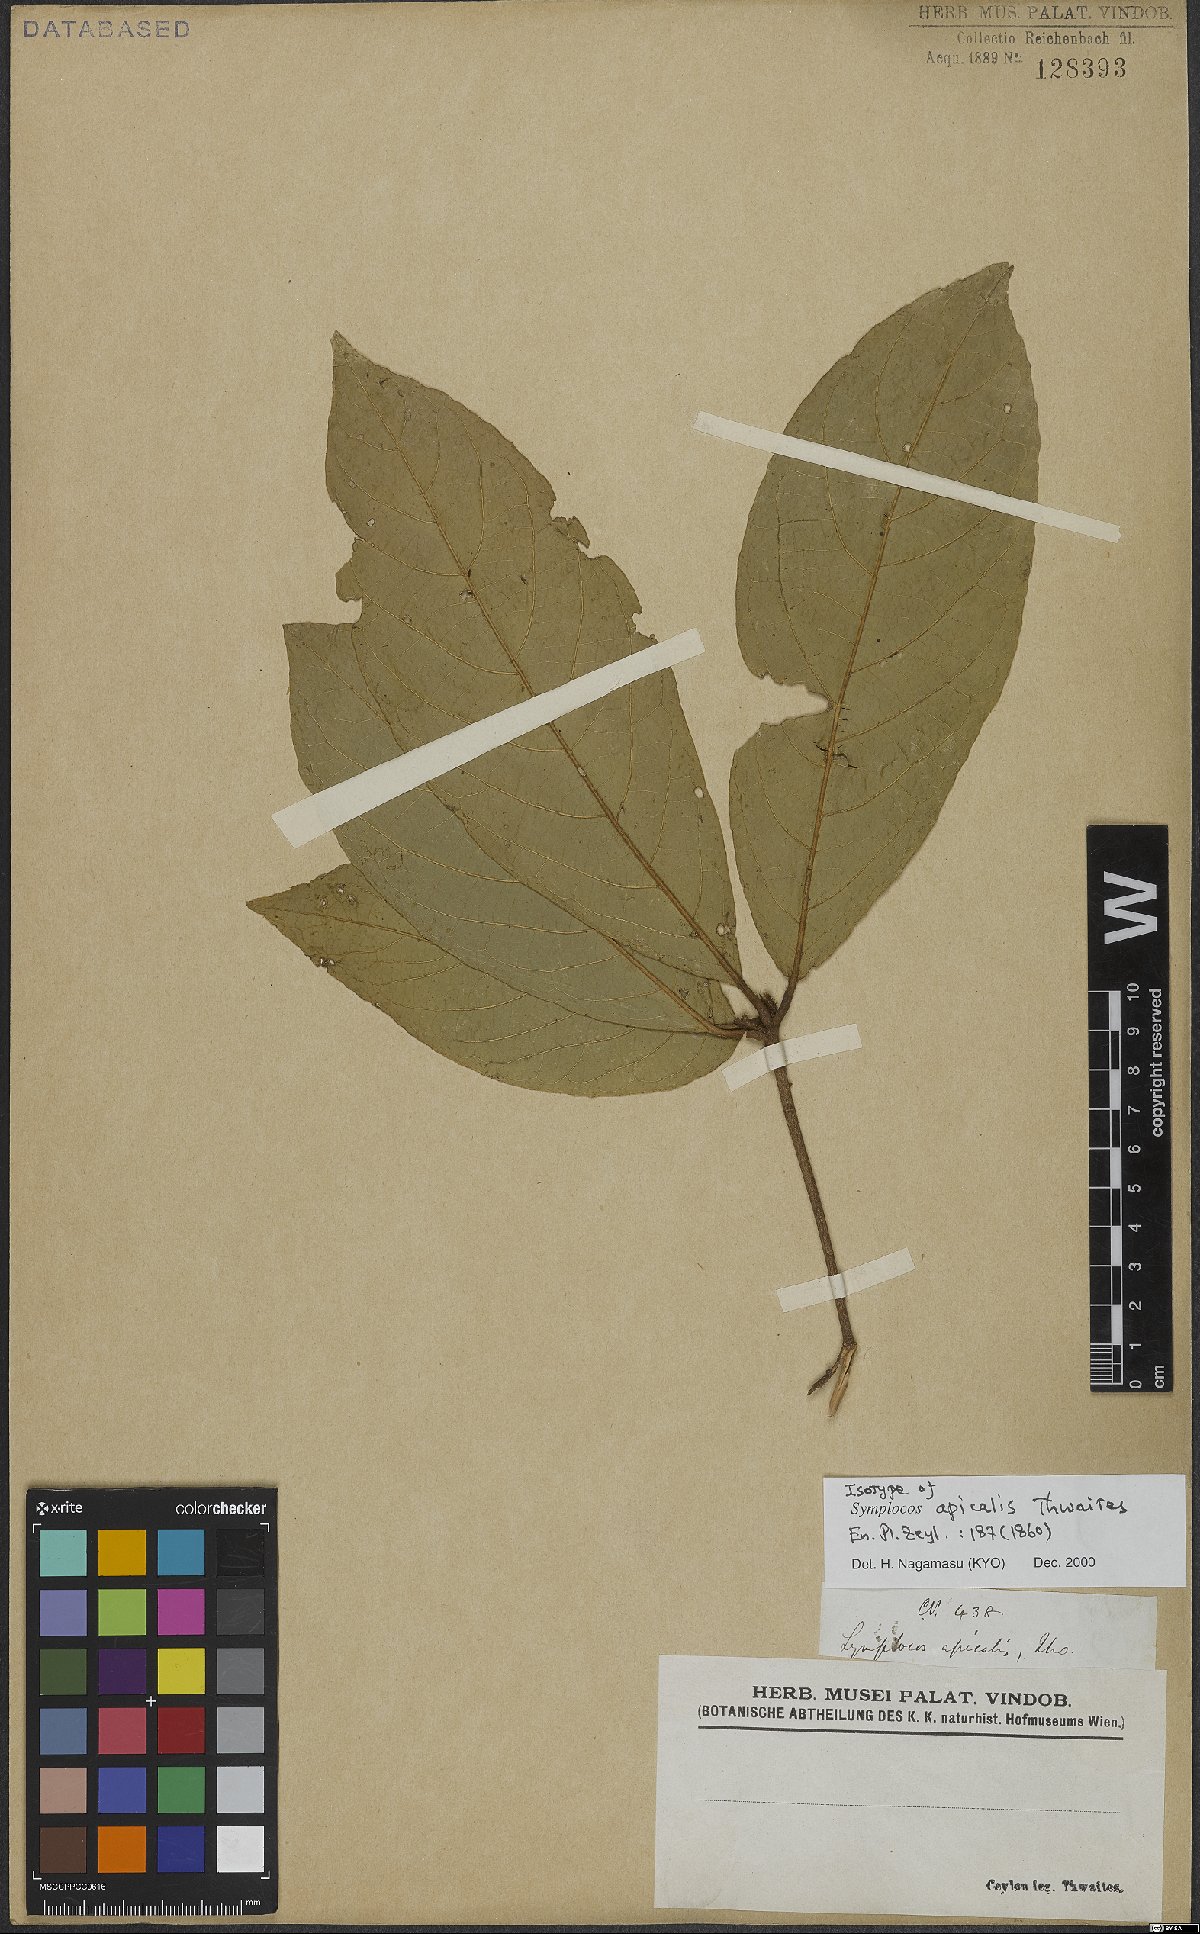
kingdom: Plantae
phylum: Tracheophyta
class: Magnoliopsida
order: Ericales
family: Symplocaceae
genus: Symplocos
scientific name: Symplocos coronata
